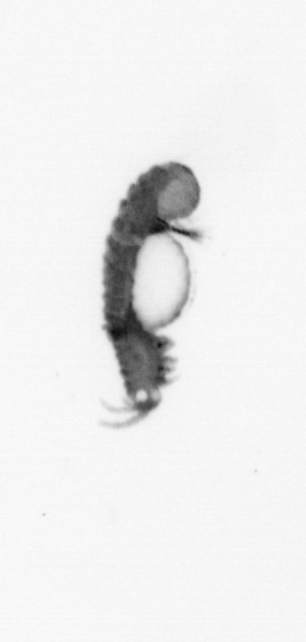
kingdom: Animalia
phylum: Annelida
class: Polychaeta
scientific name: Polychaeta
